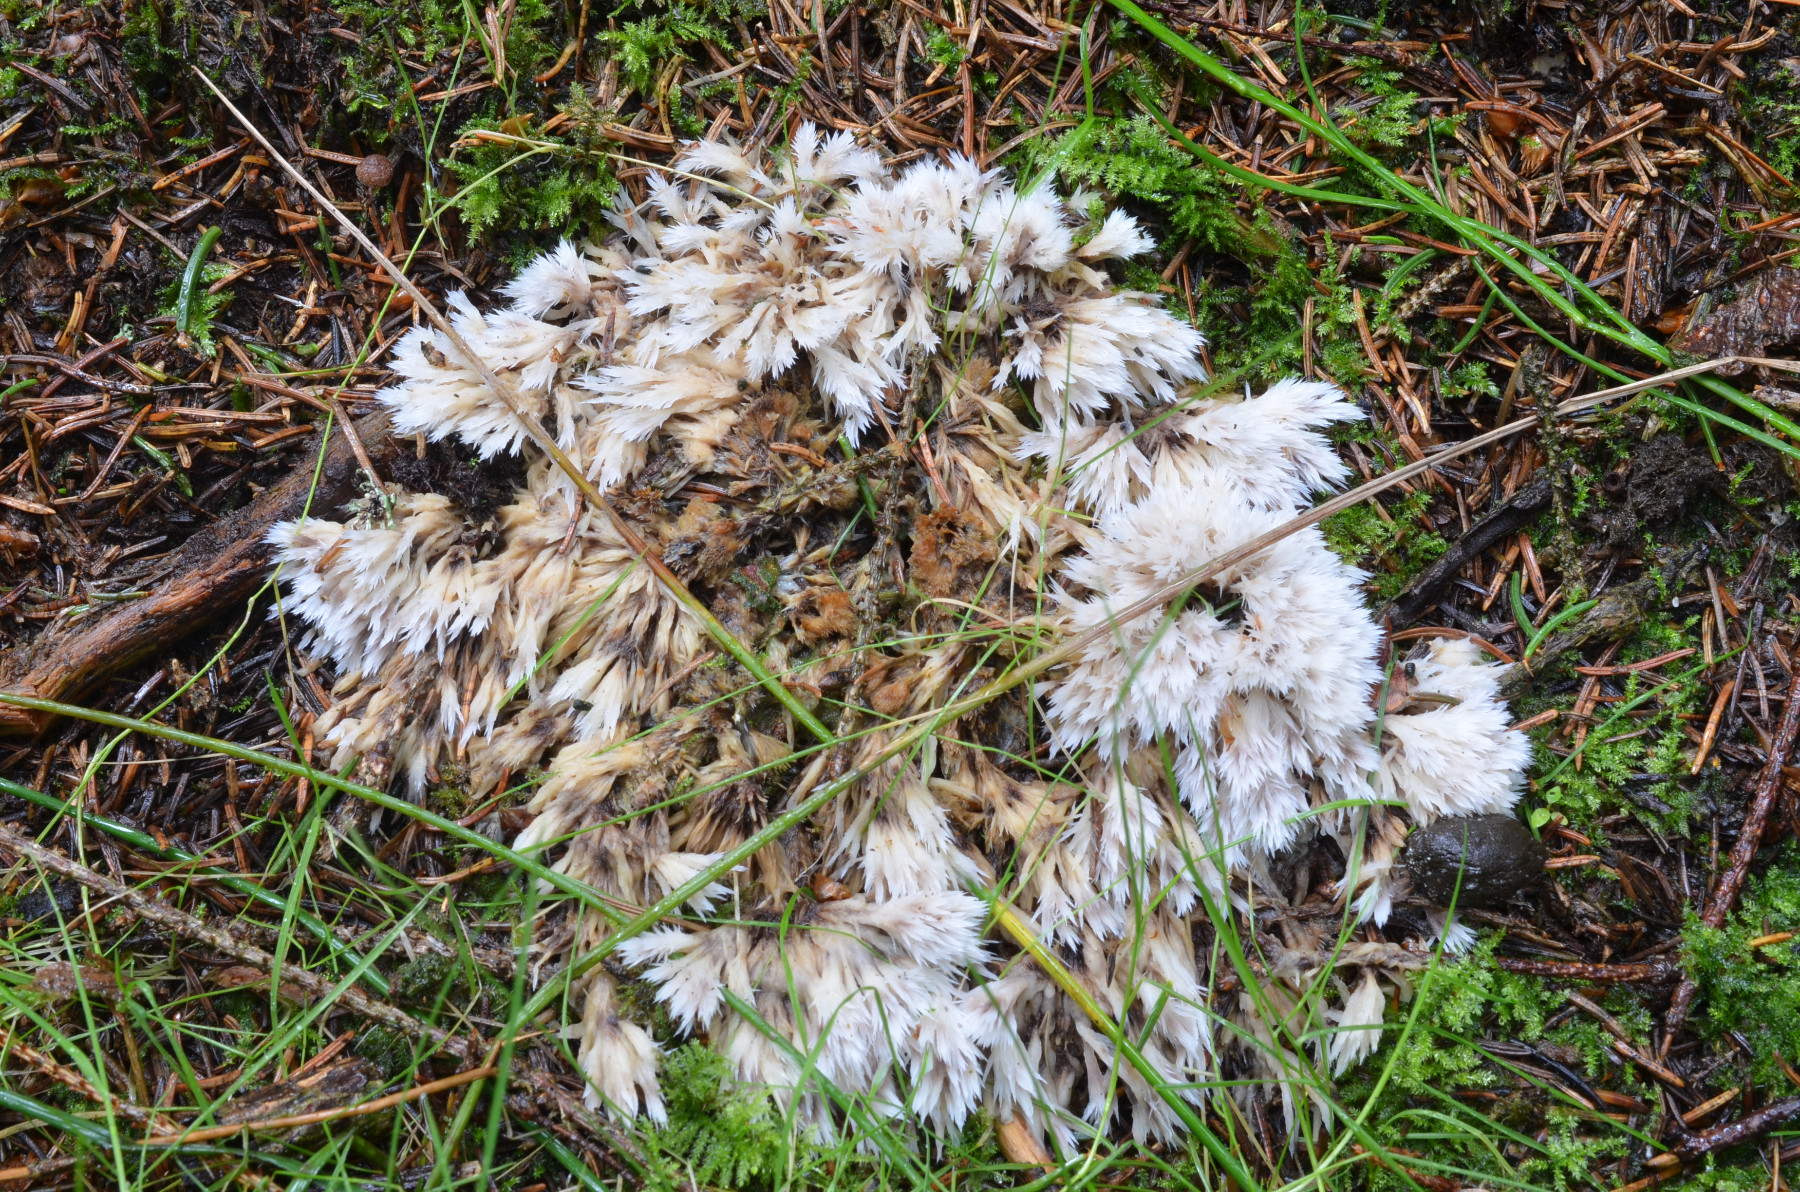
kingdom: Fungi
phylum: Basidiomycota
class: Agaricomycetes
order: Thelephorales
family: Thelephoraceae
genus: Thelephora
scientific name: Thelephora penicillata
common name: fladtrådt frynsesvamp
